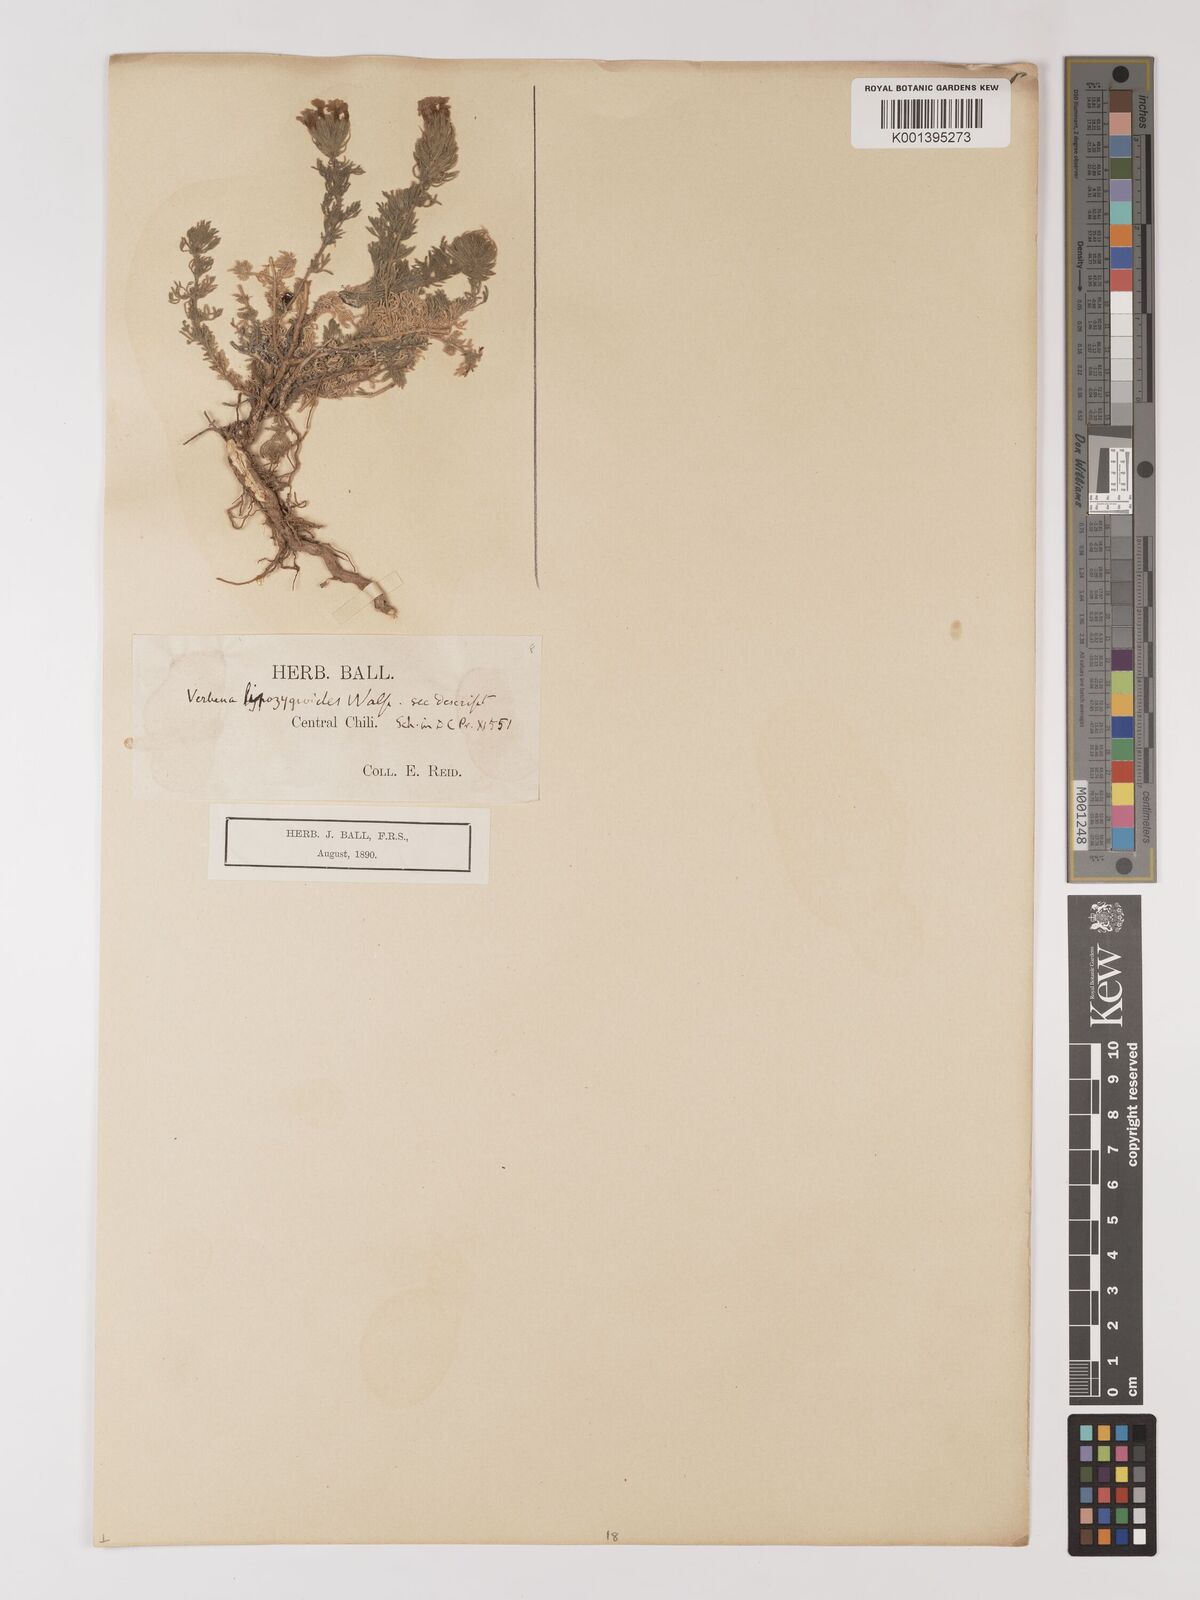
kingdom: Plantae
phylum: Tracheophyta
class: Magnoliopsida
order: Lamiales
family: Verbenaceae
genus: Verbena
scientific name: Verbena lipozygioides
